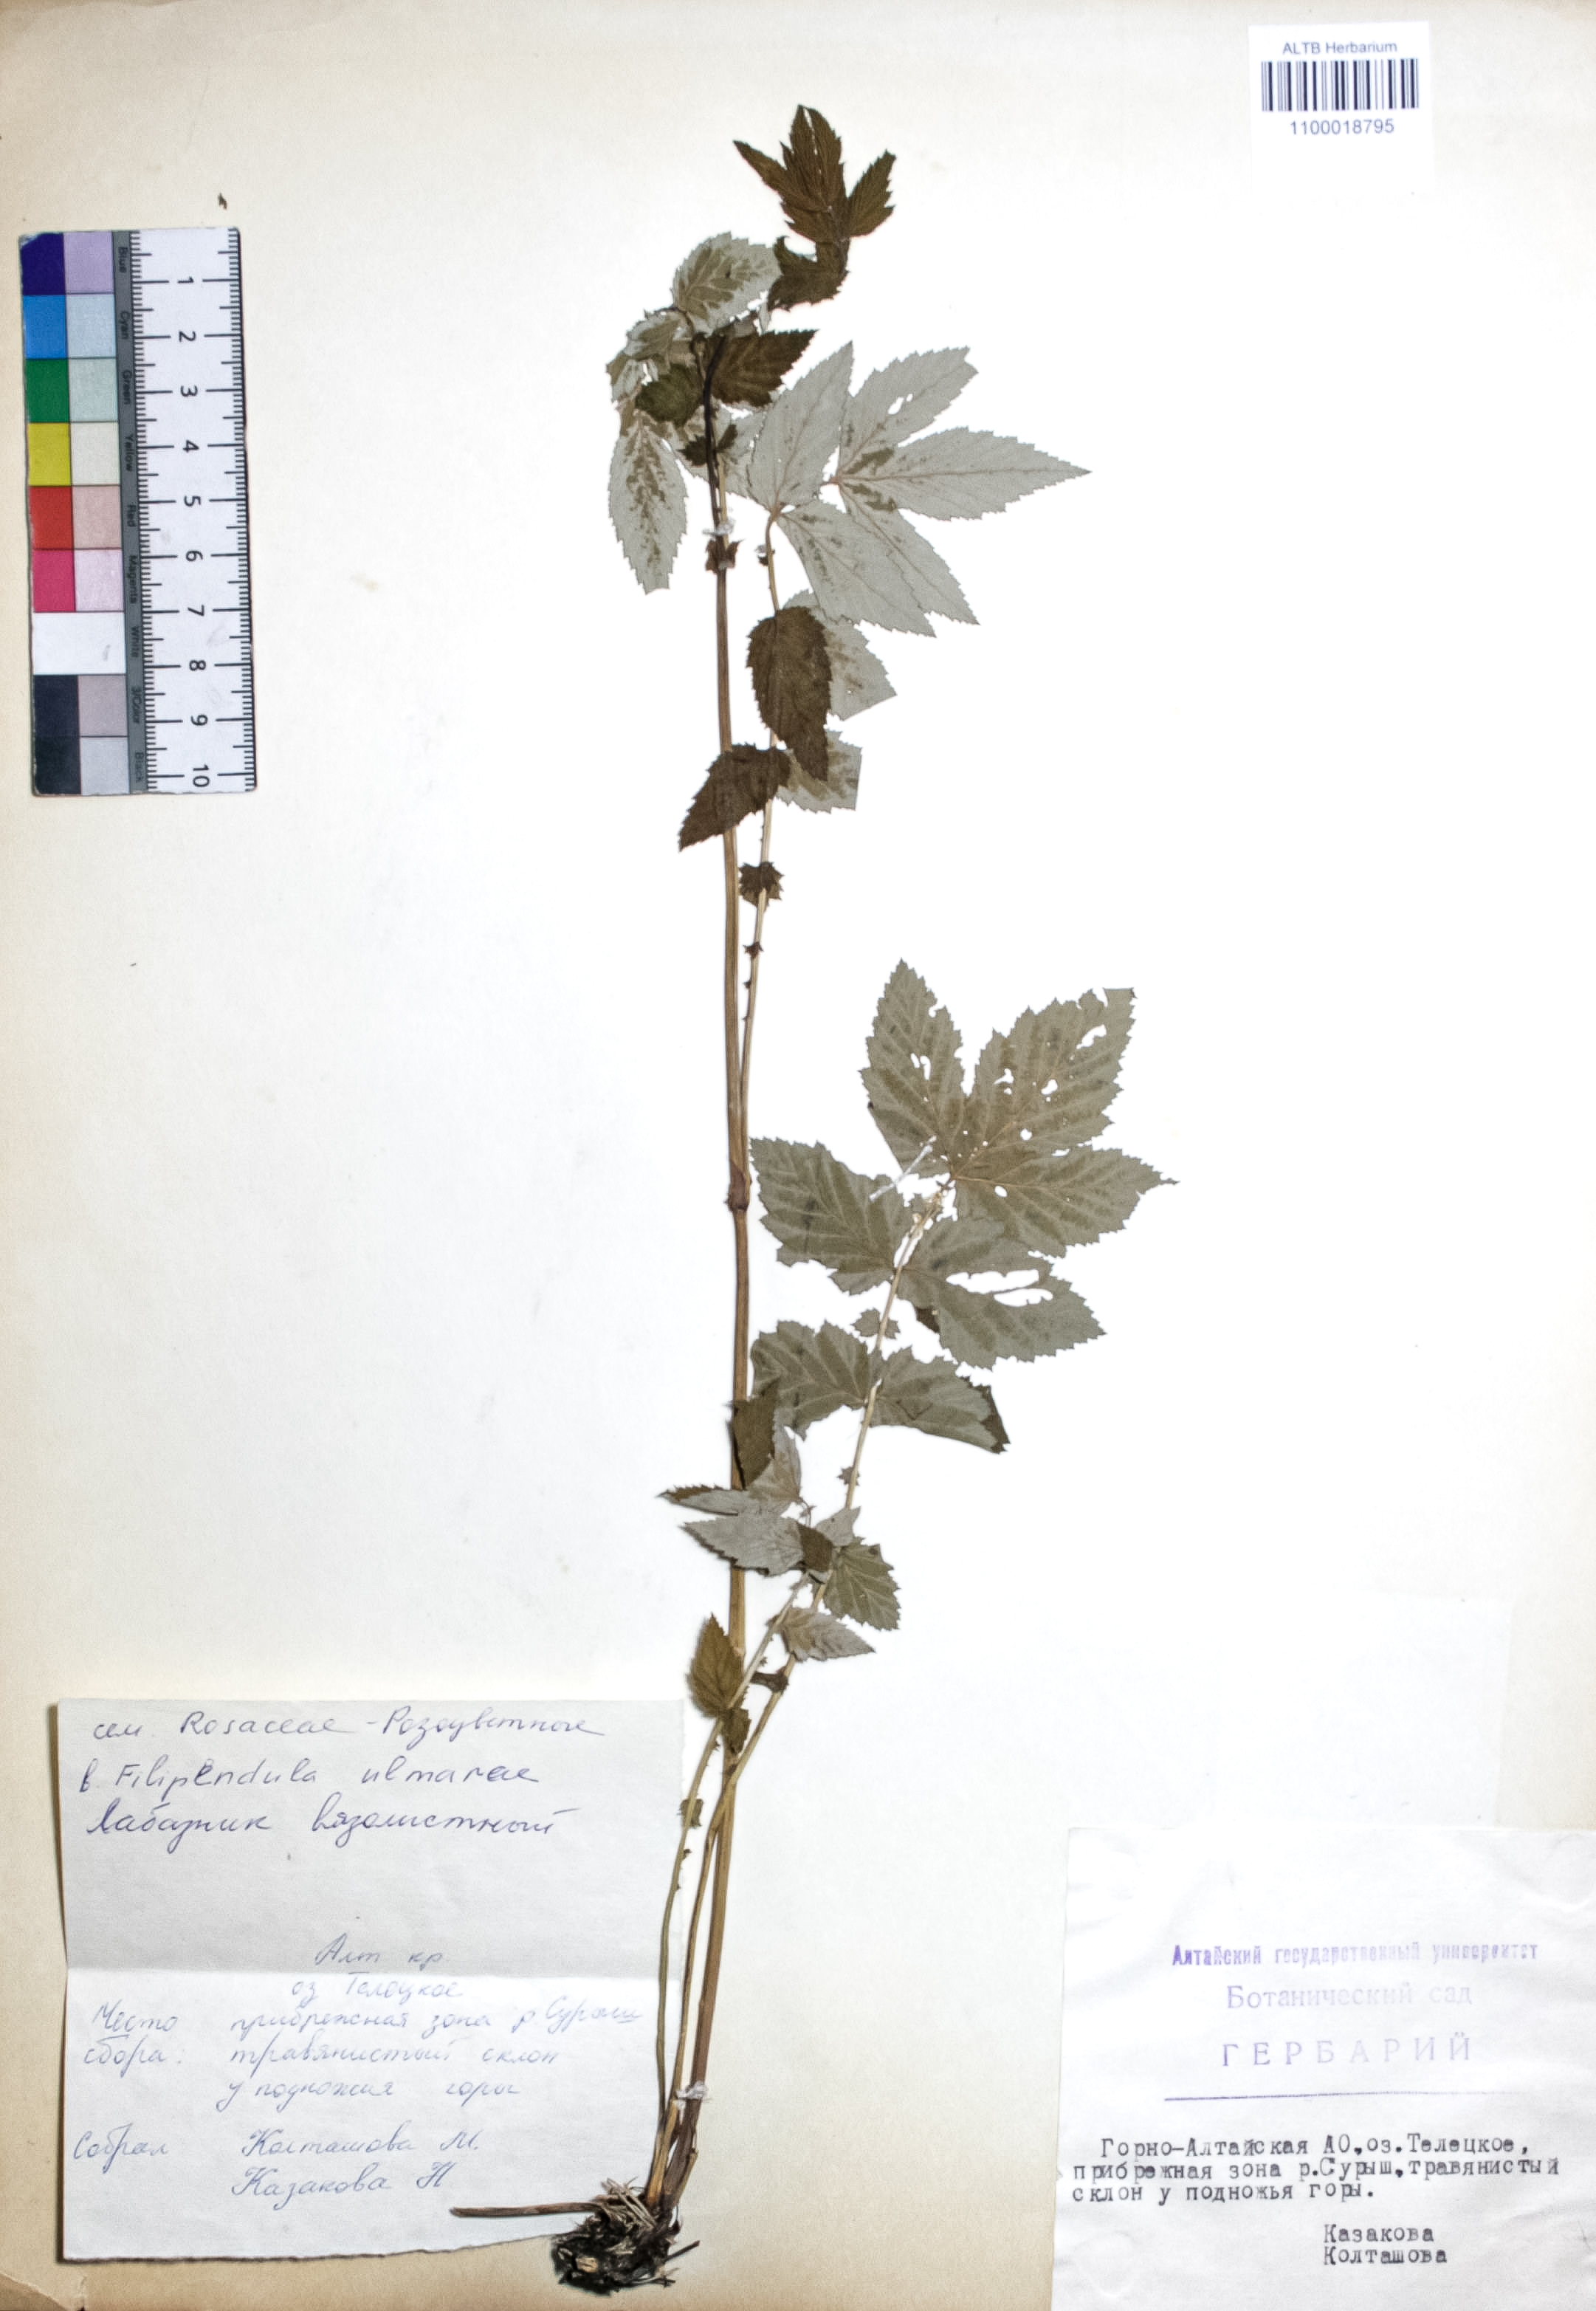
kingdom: Plantae
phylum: Tracheophyta
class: Magnoliopsida
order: Rosales
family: Rosaceae
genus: Filipendula
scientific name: Filipendula ulmaria
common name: Meadowsweet
